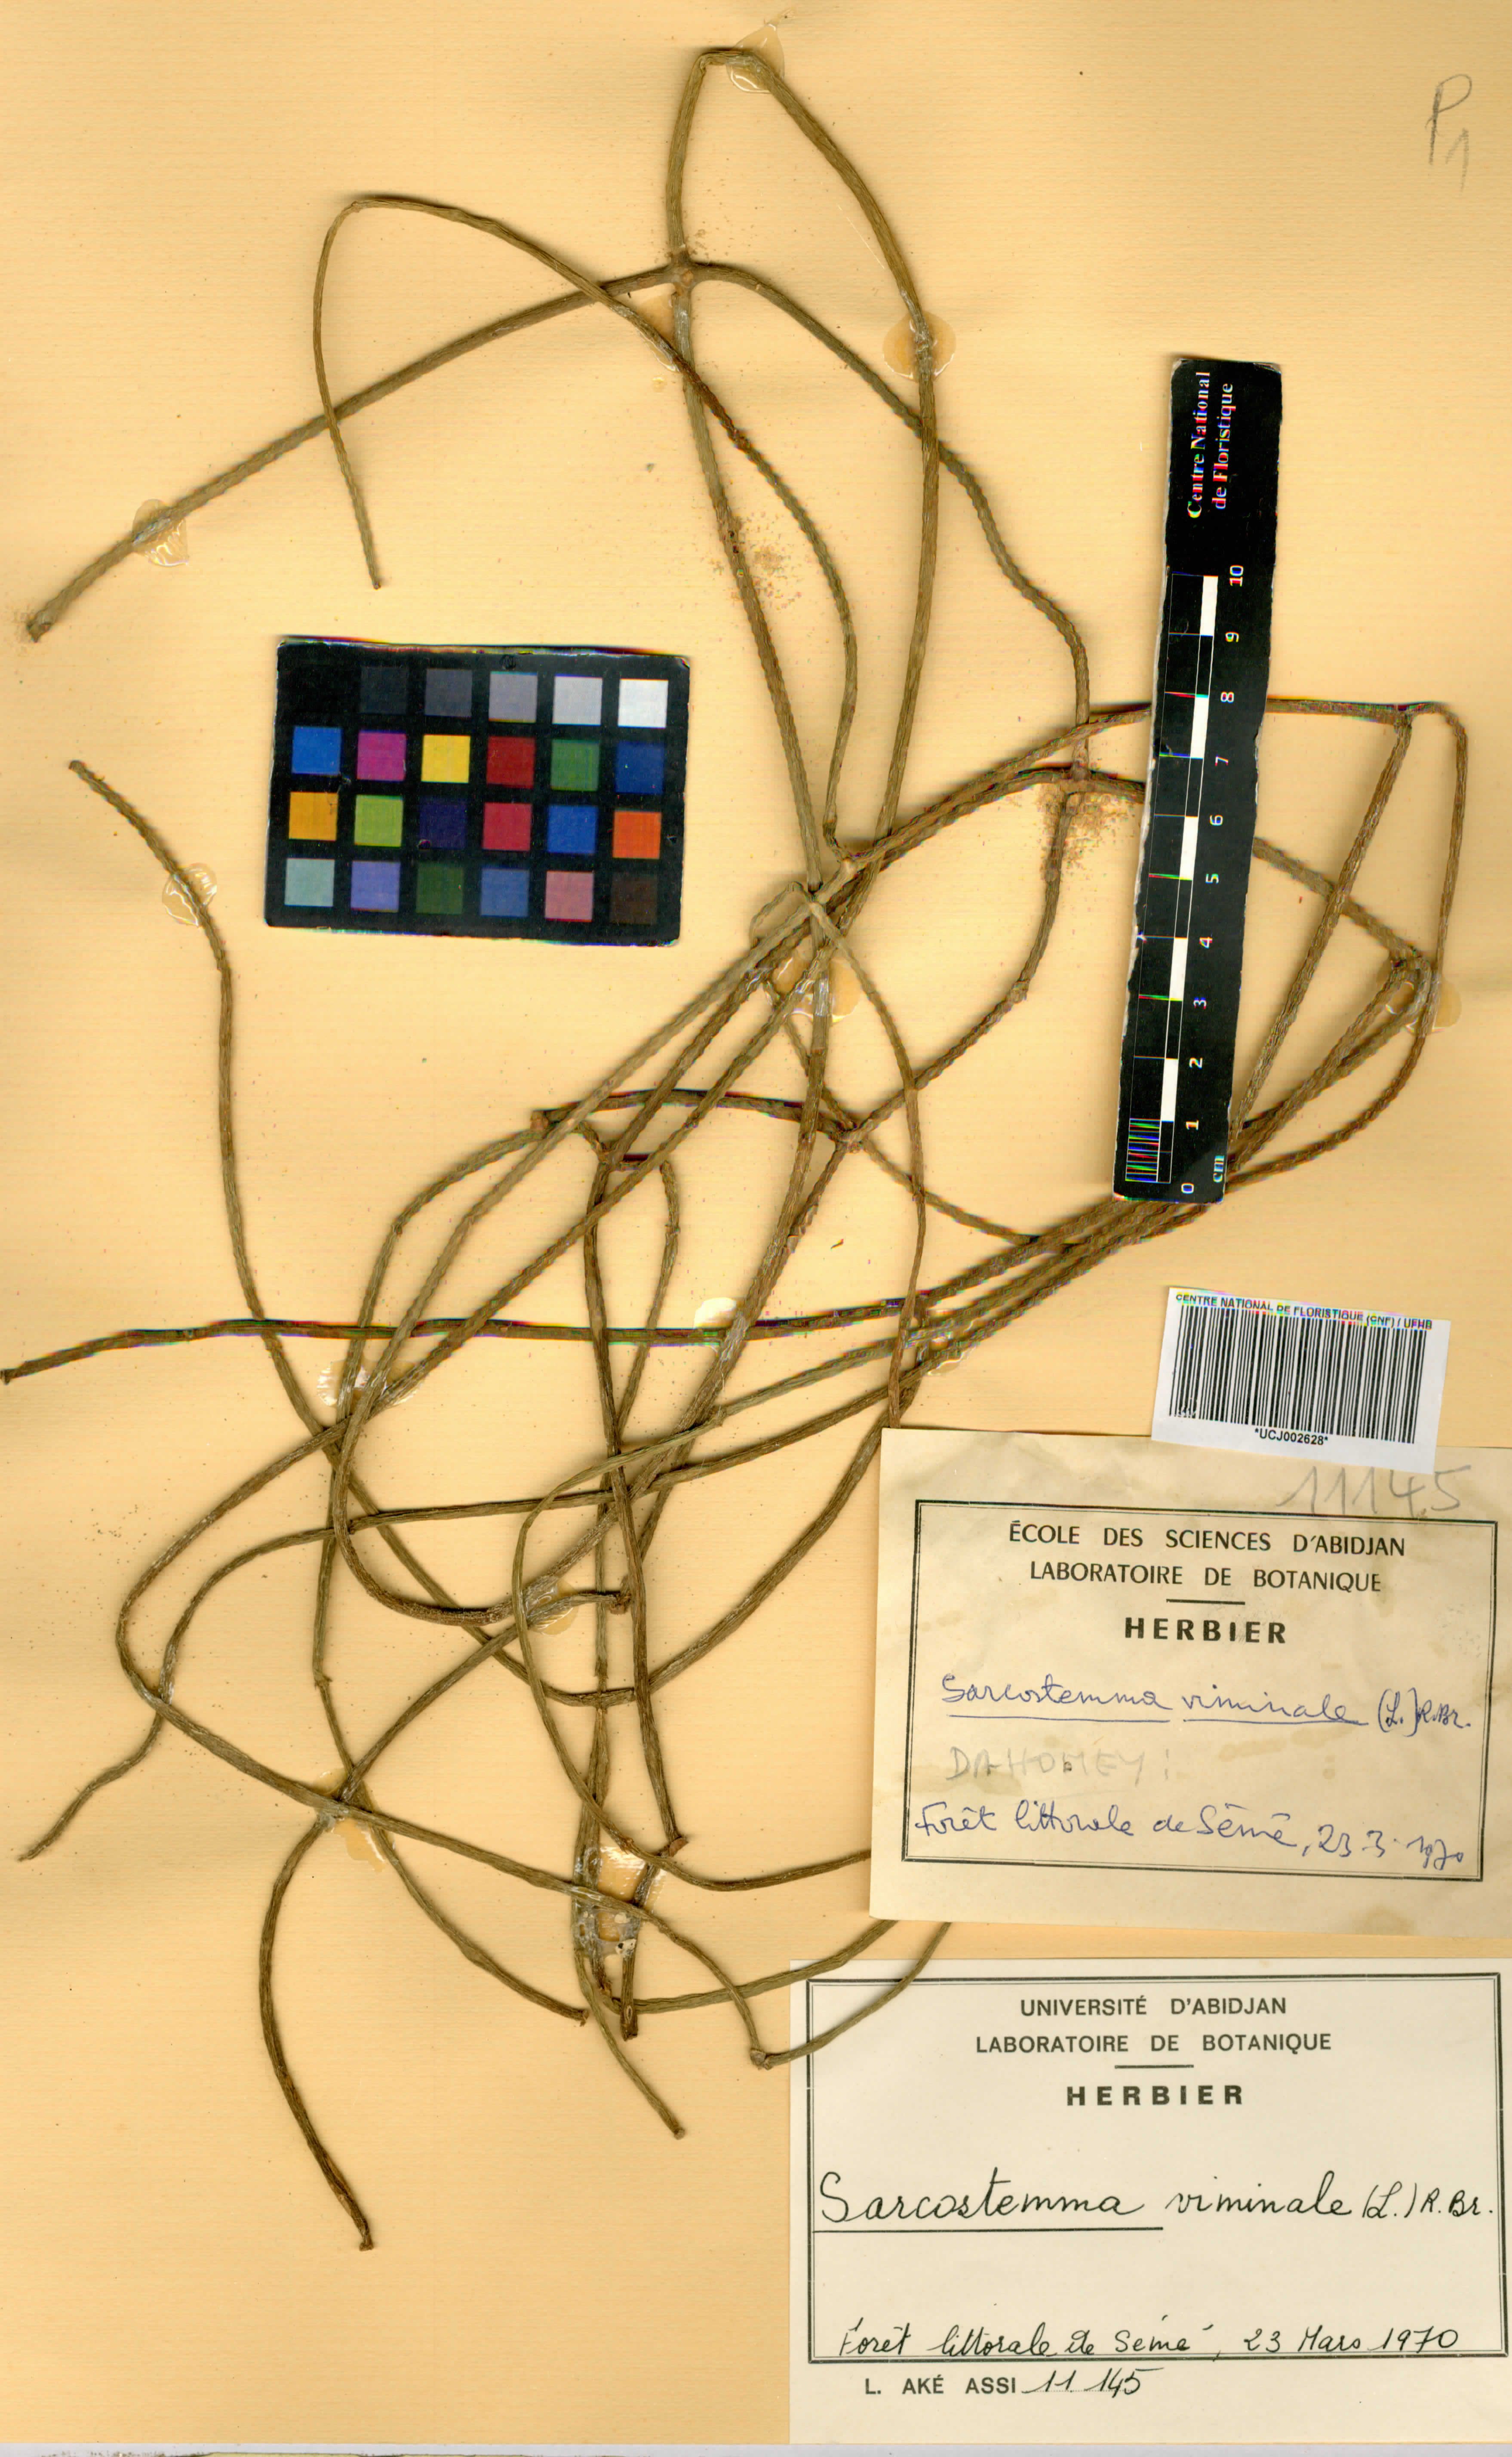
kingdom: Plantae
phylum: Tracheophyta
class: Magnoliopsida
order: Gentianales
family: Apocynaceae
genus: Cynanchum
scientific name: Cynanchum viminale
